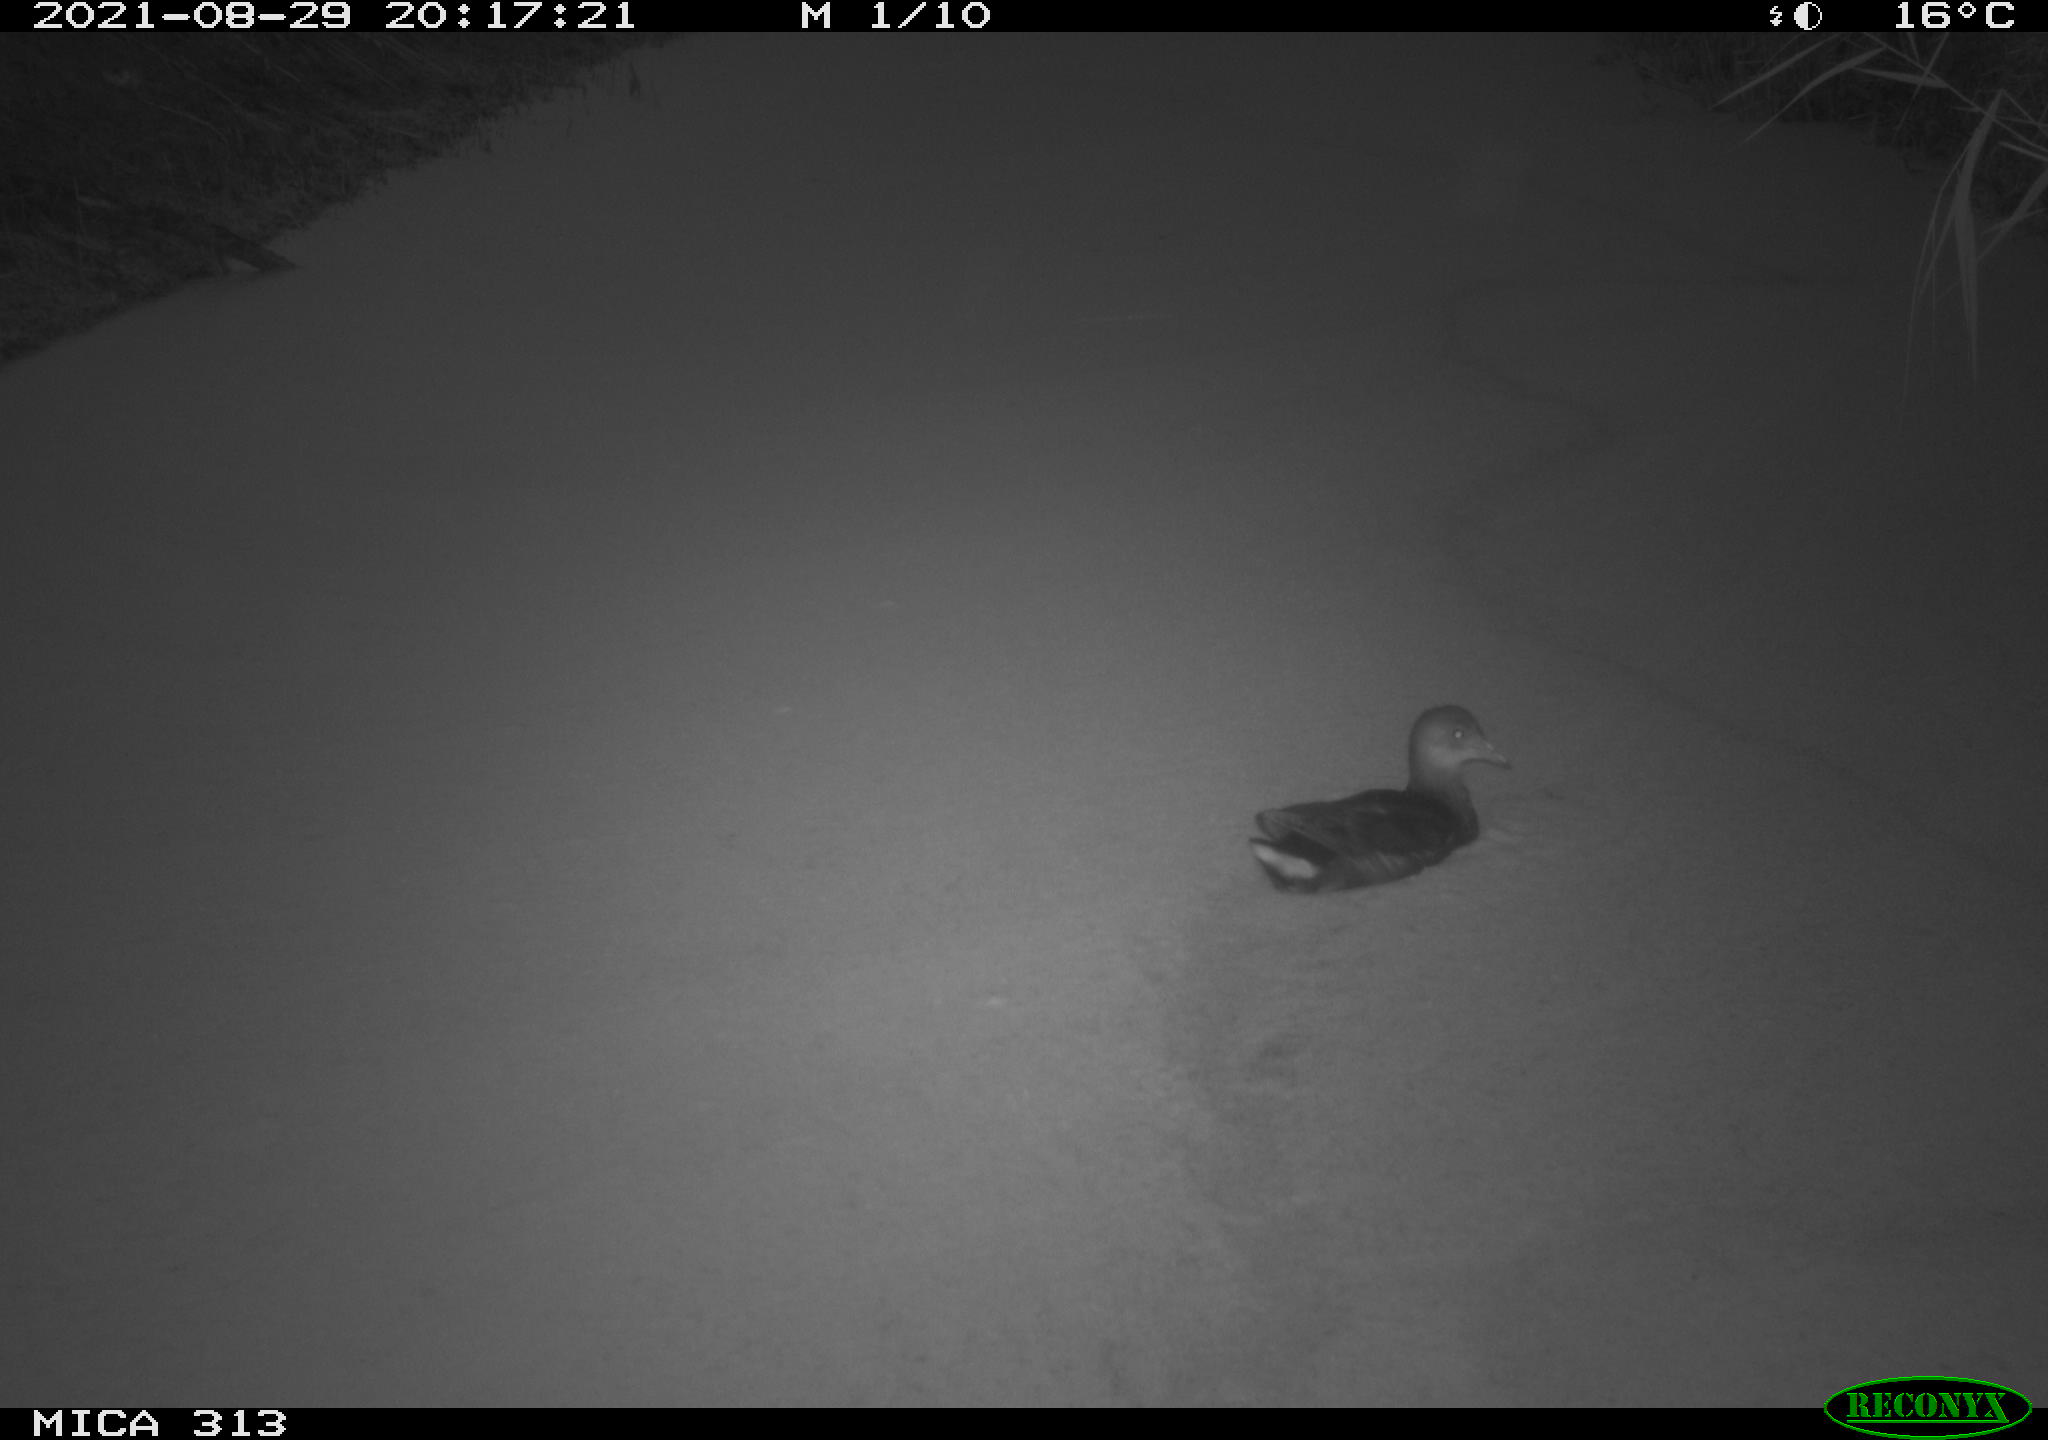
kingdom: Animalia
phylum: Chordata
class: Aves
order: Gruiformes
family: Rallidae
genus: Fulica
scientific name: Fulica atra
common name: Eurasian coot
